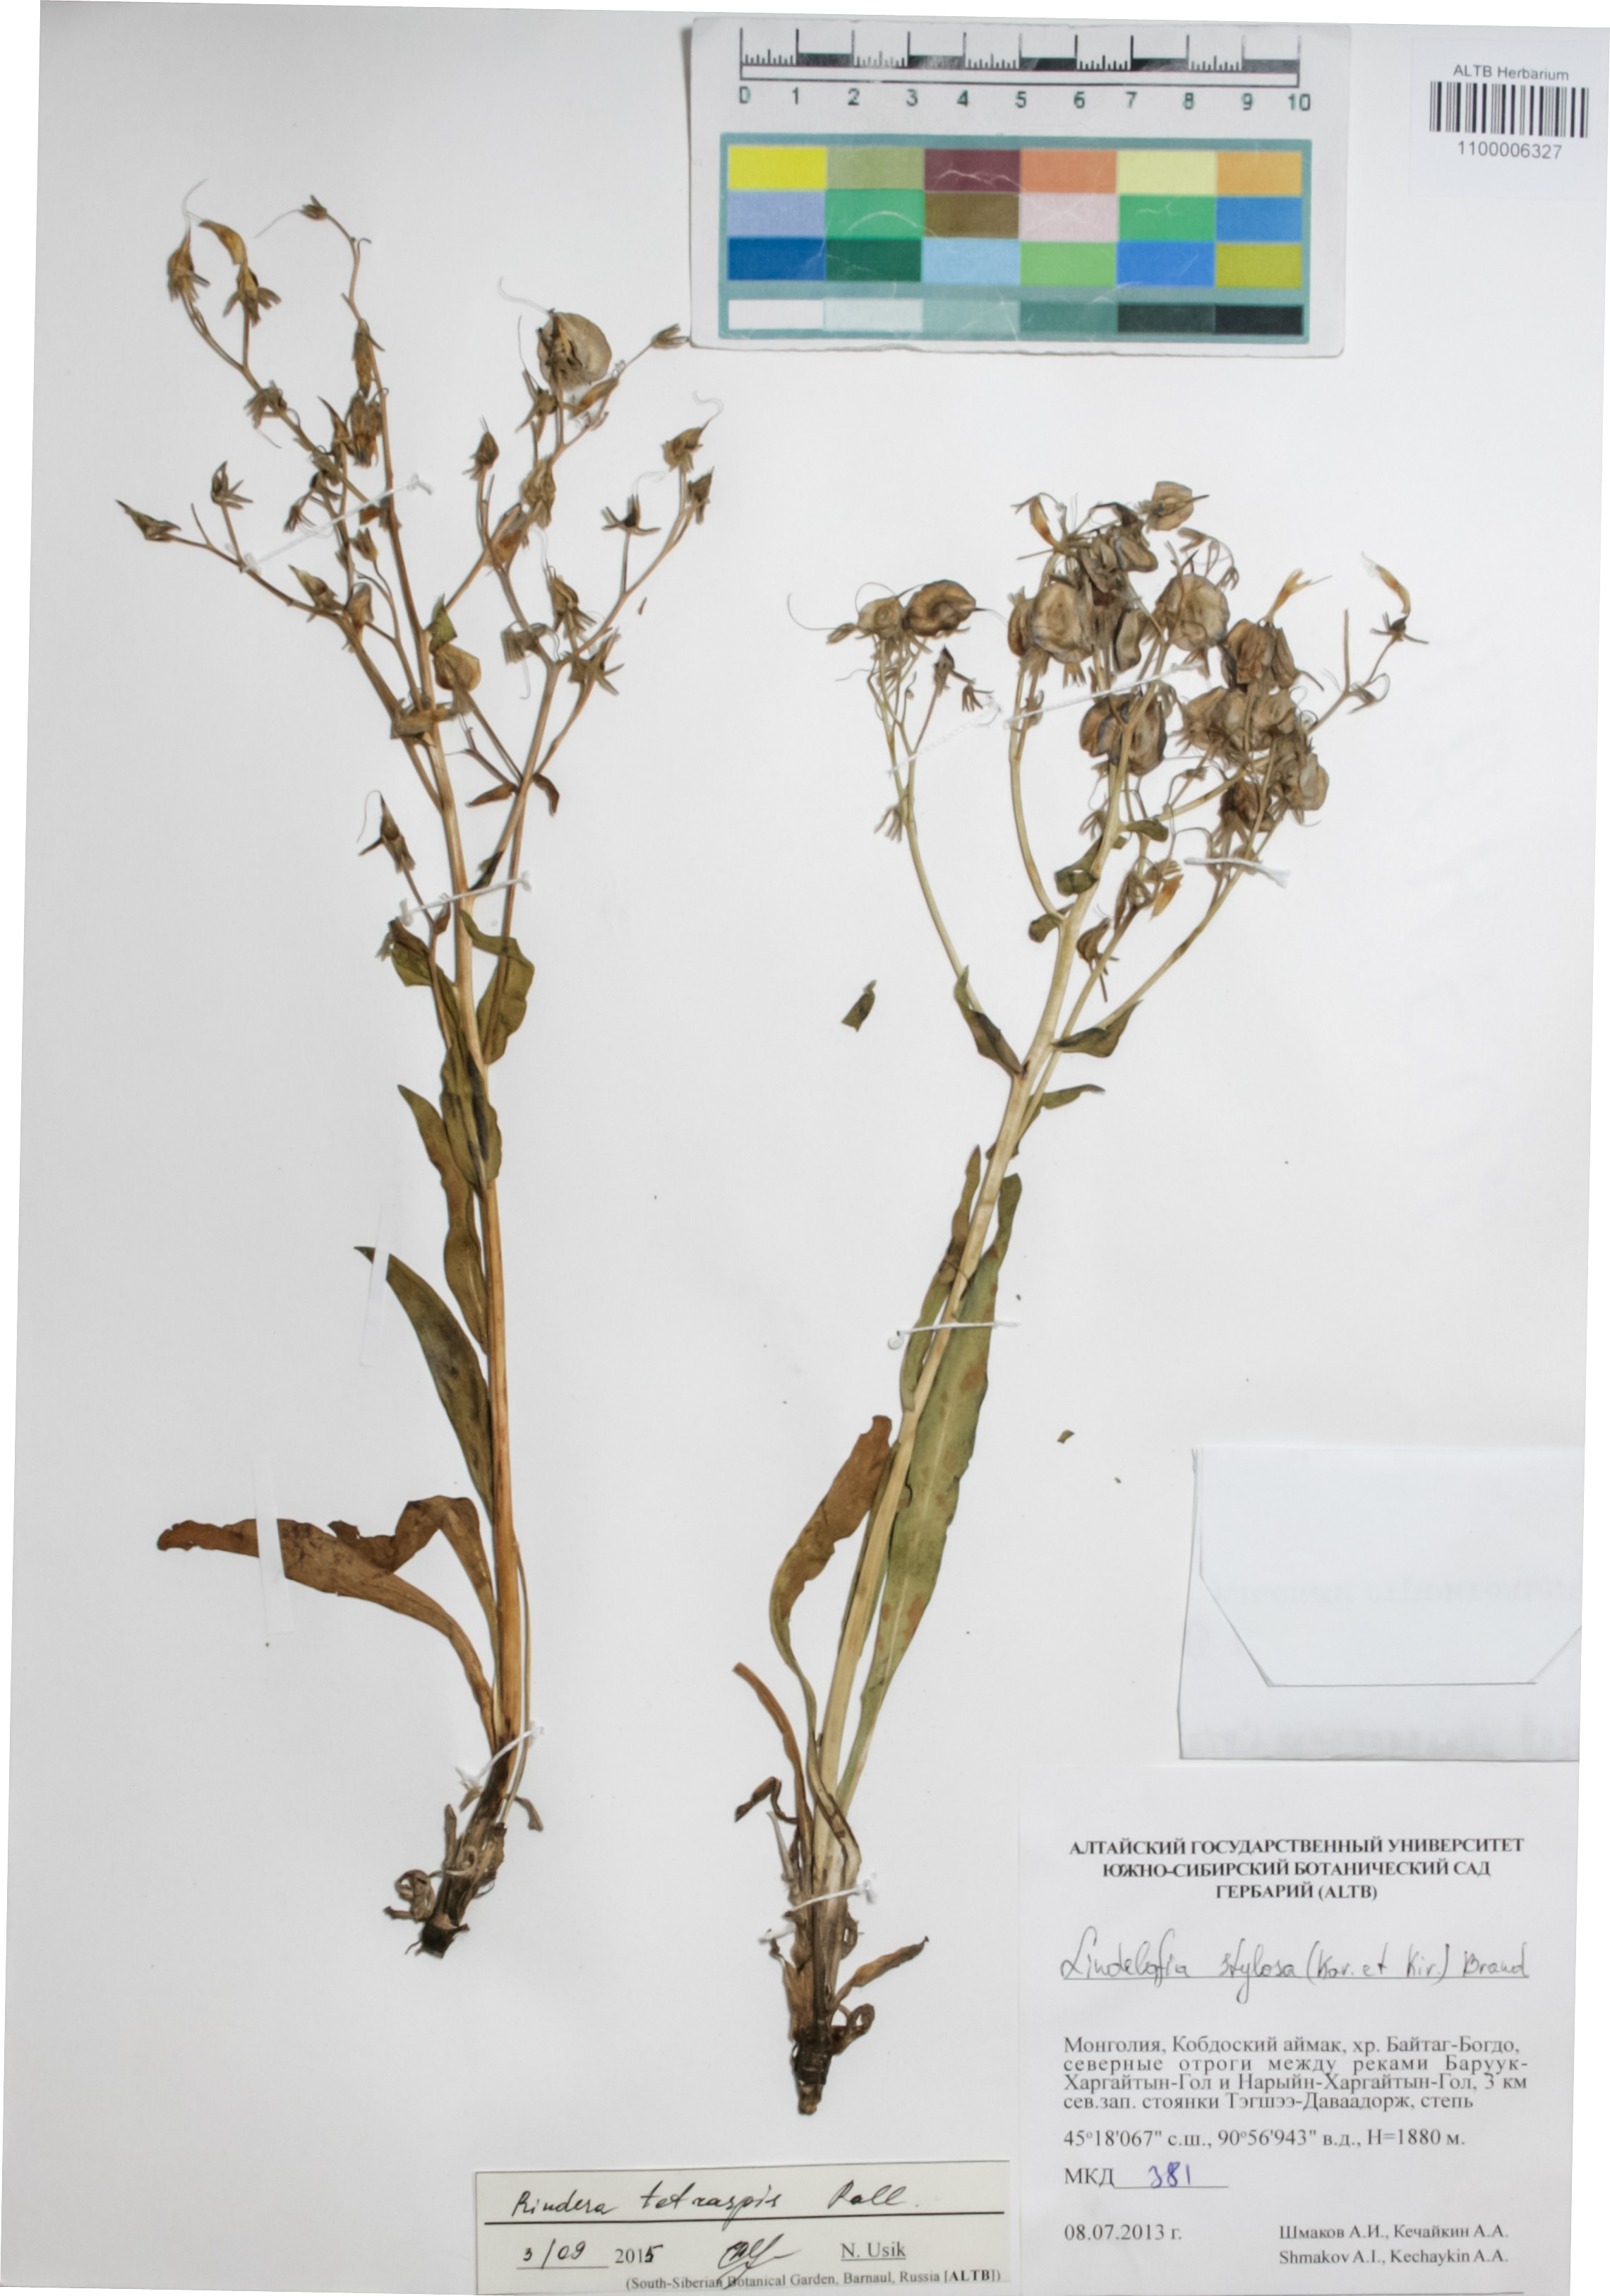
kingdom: Plantae
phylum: Tracheophyta
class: Magnoliopsida
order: Boraginales
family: Boraginaceae
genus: Rindera
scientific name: Rindera tetraspis
